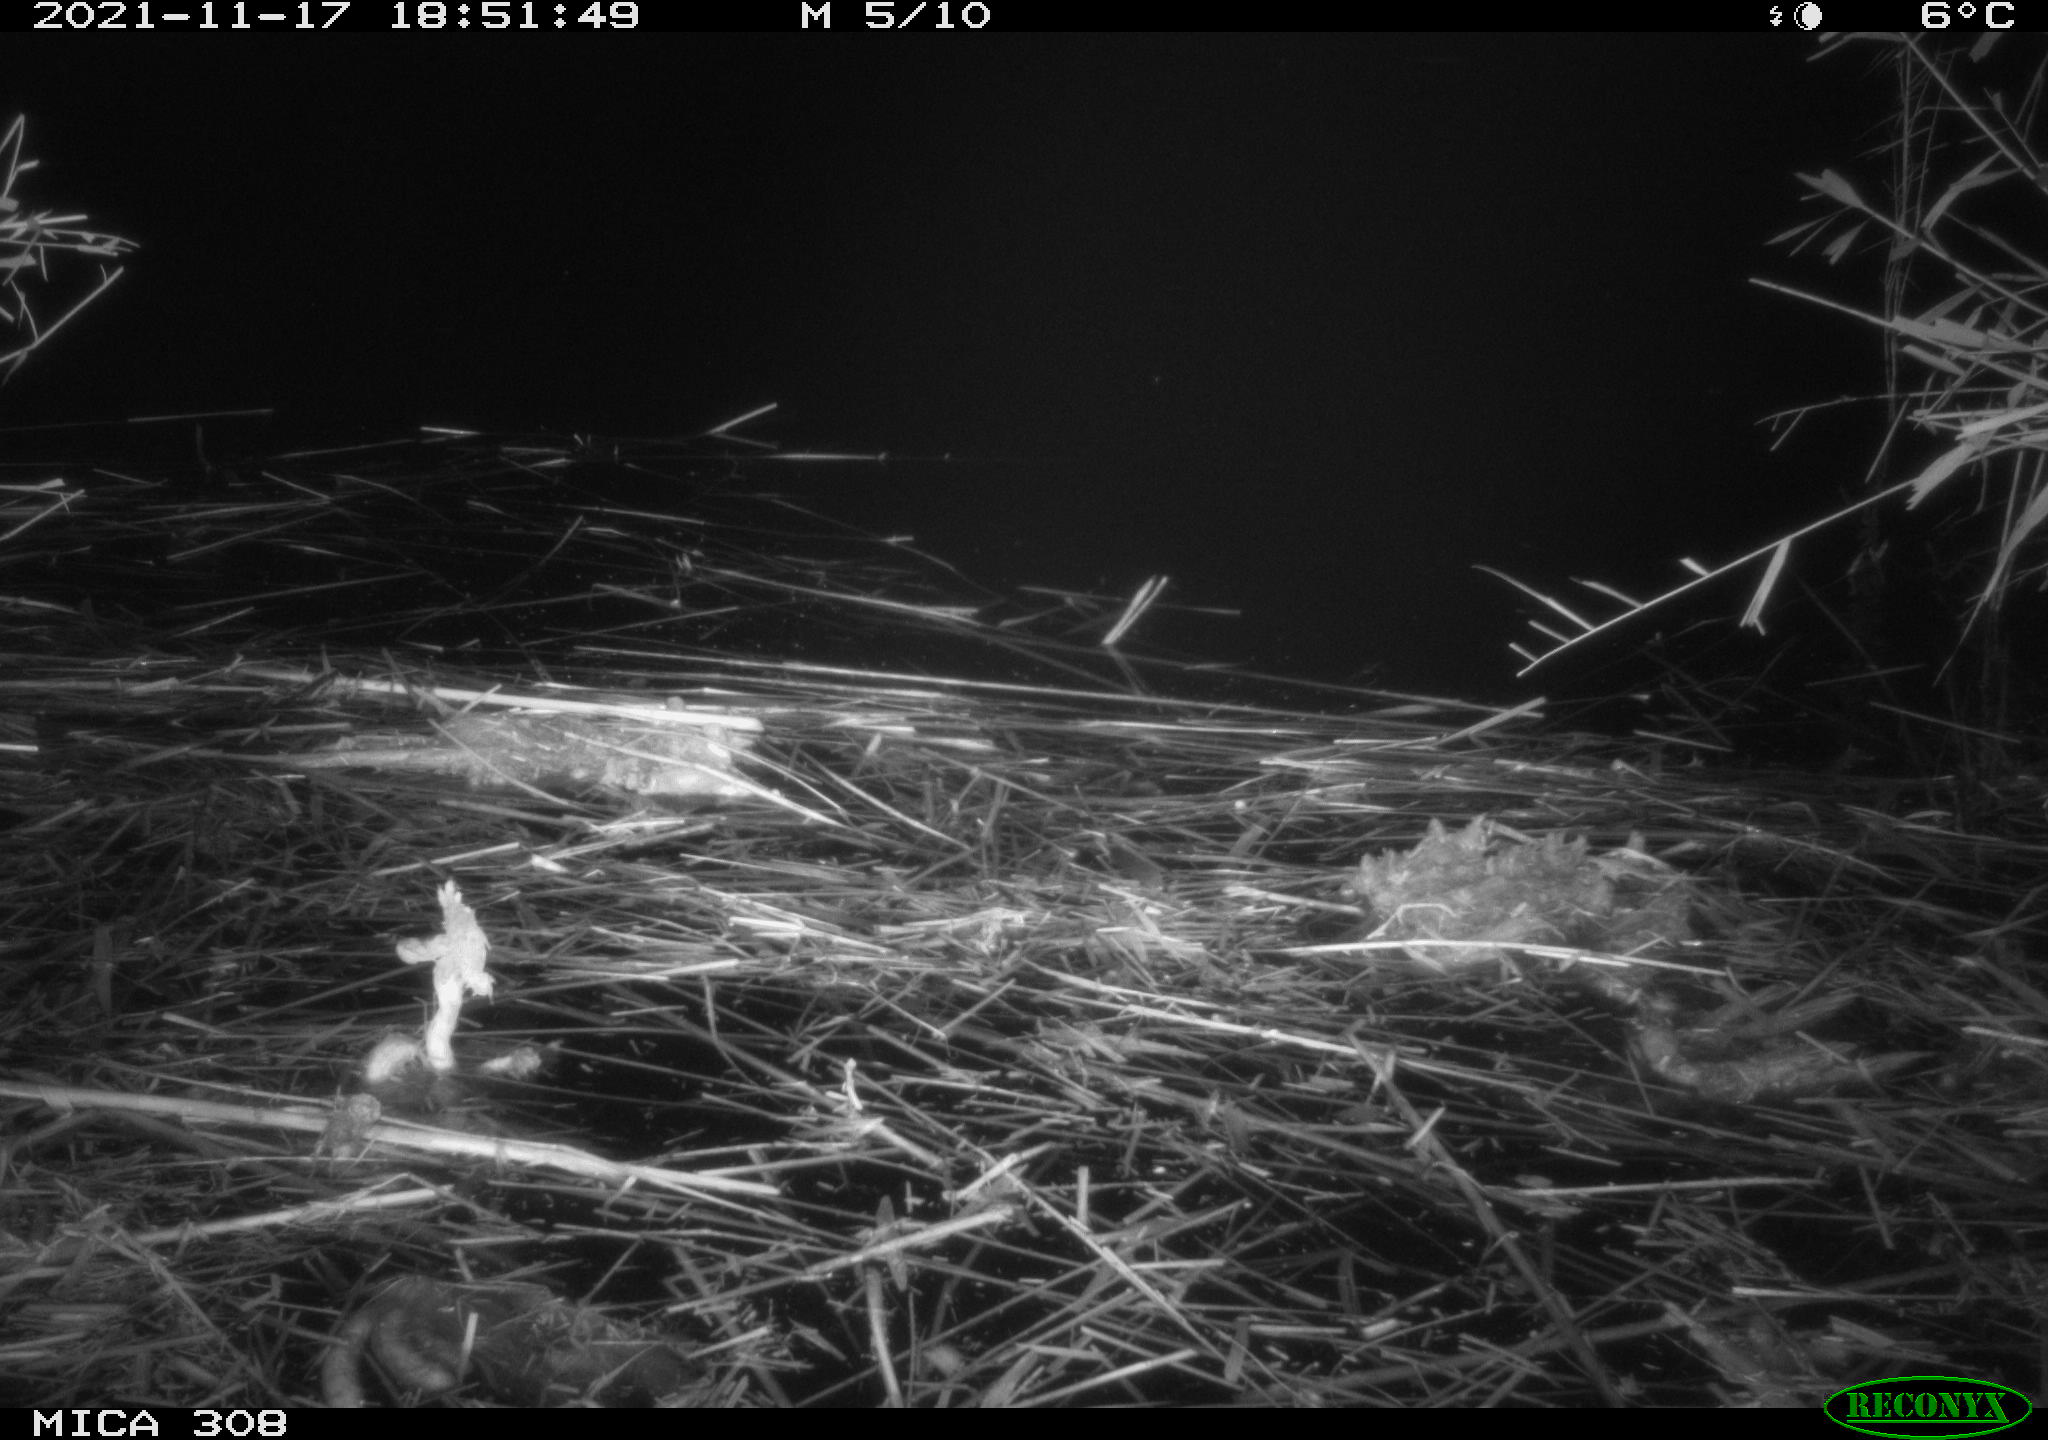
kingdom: Animalia
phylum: Chordata
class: Mammalia
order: Rodentia
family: Muridae
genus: Rattus
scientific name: Rattus norvegicus
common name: Brown rat
